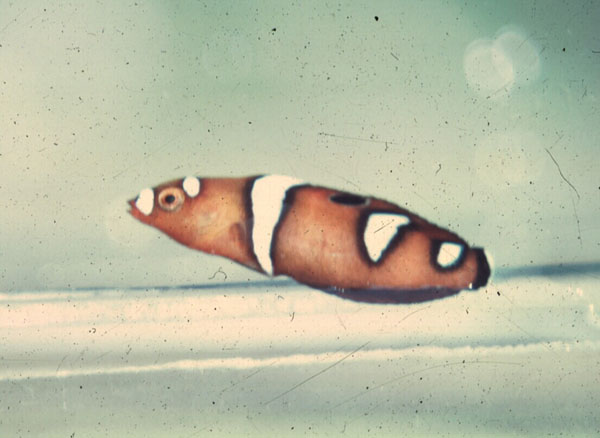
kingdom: Animalia
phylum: Chordata
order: Perciformes
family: Labridae
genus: Coris
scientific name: Coris formosa
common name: Queen coris
